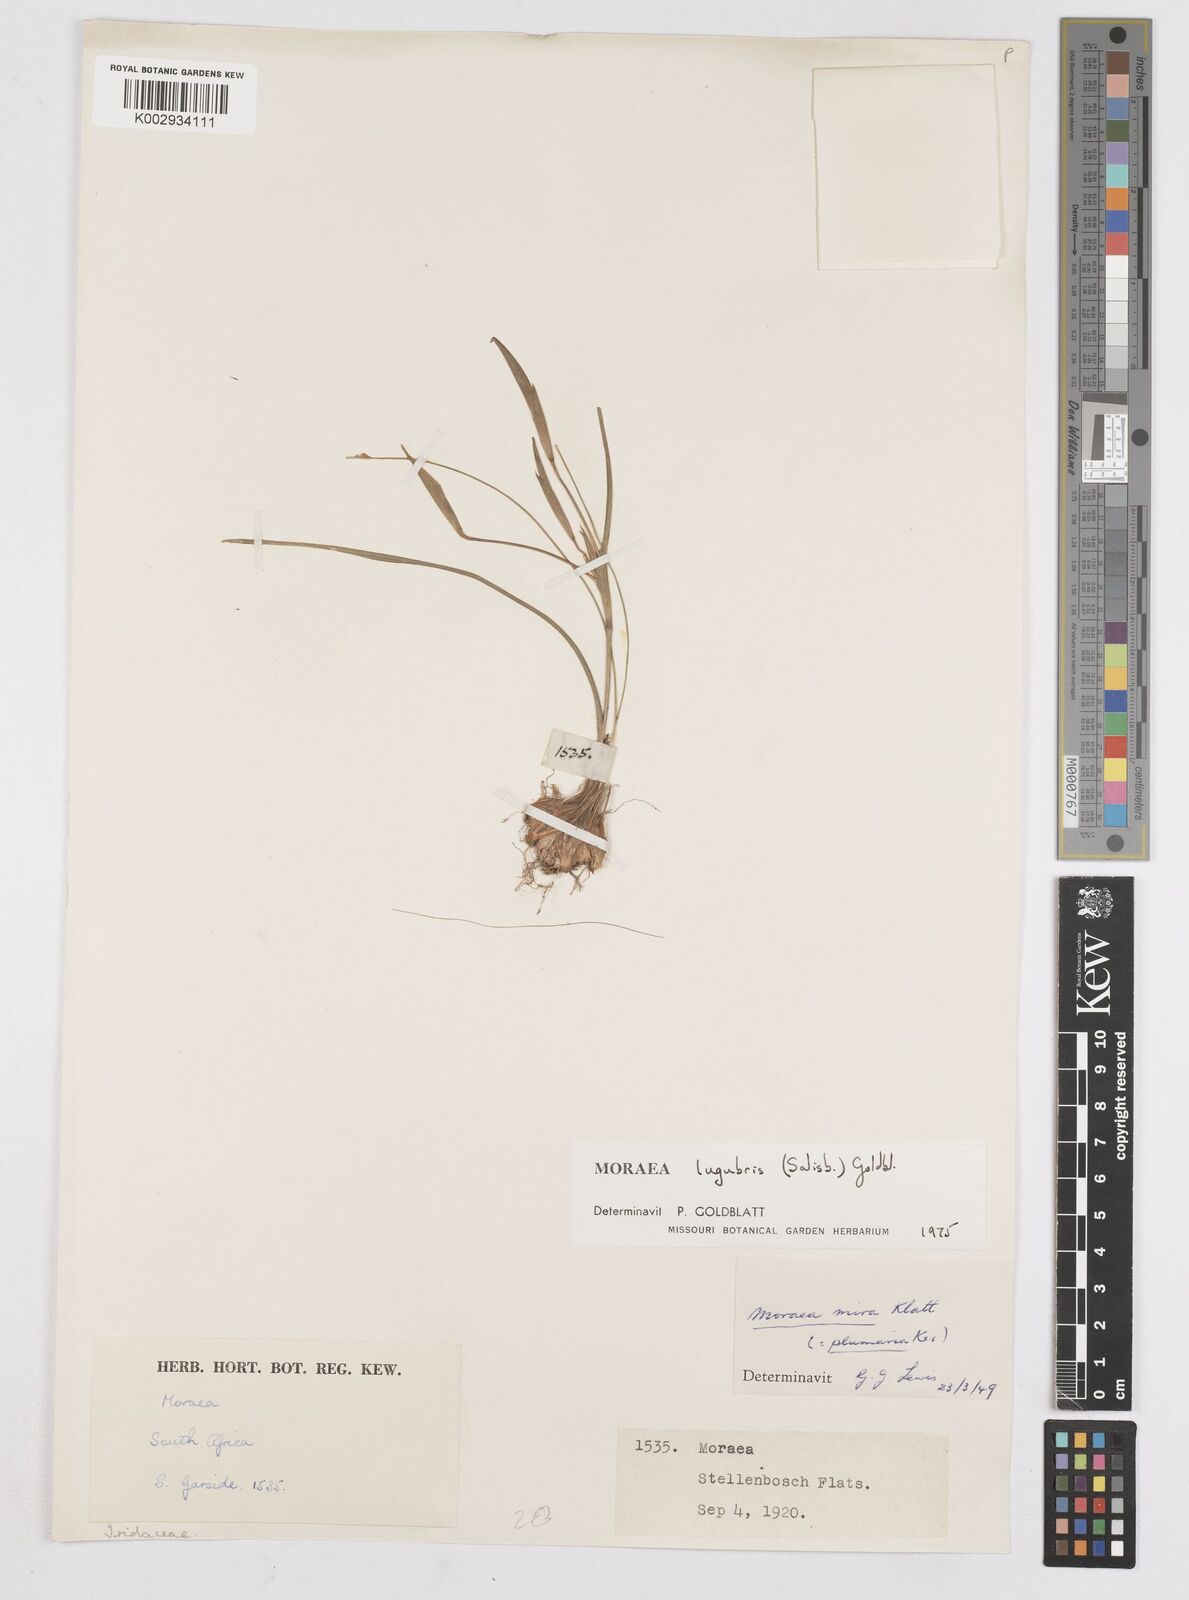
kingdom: Plantae
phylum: Tracheophyta
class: Liliopsida
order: Asparagales
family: Iridaceae
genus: Moraea
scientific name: Moraea lugubris
